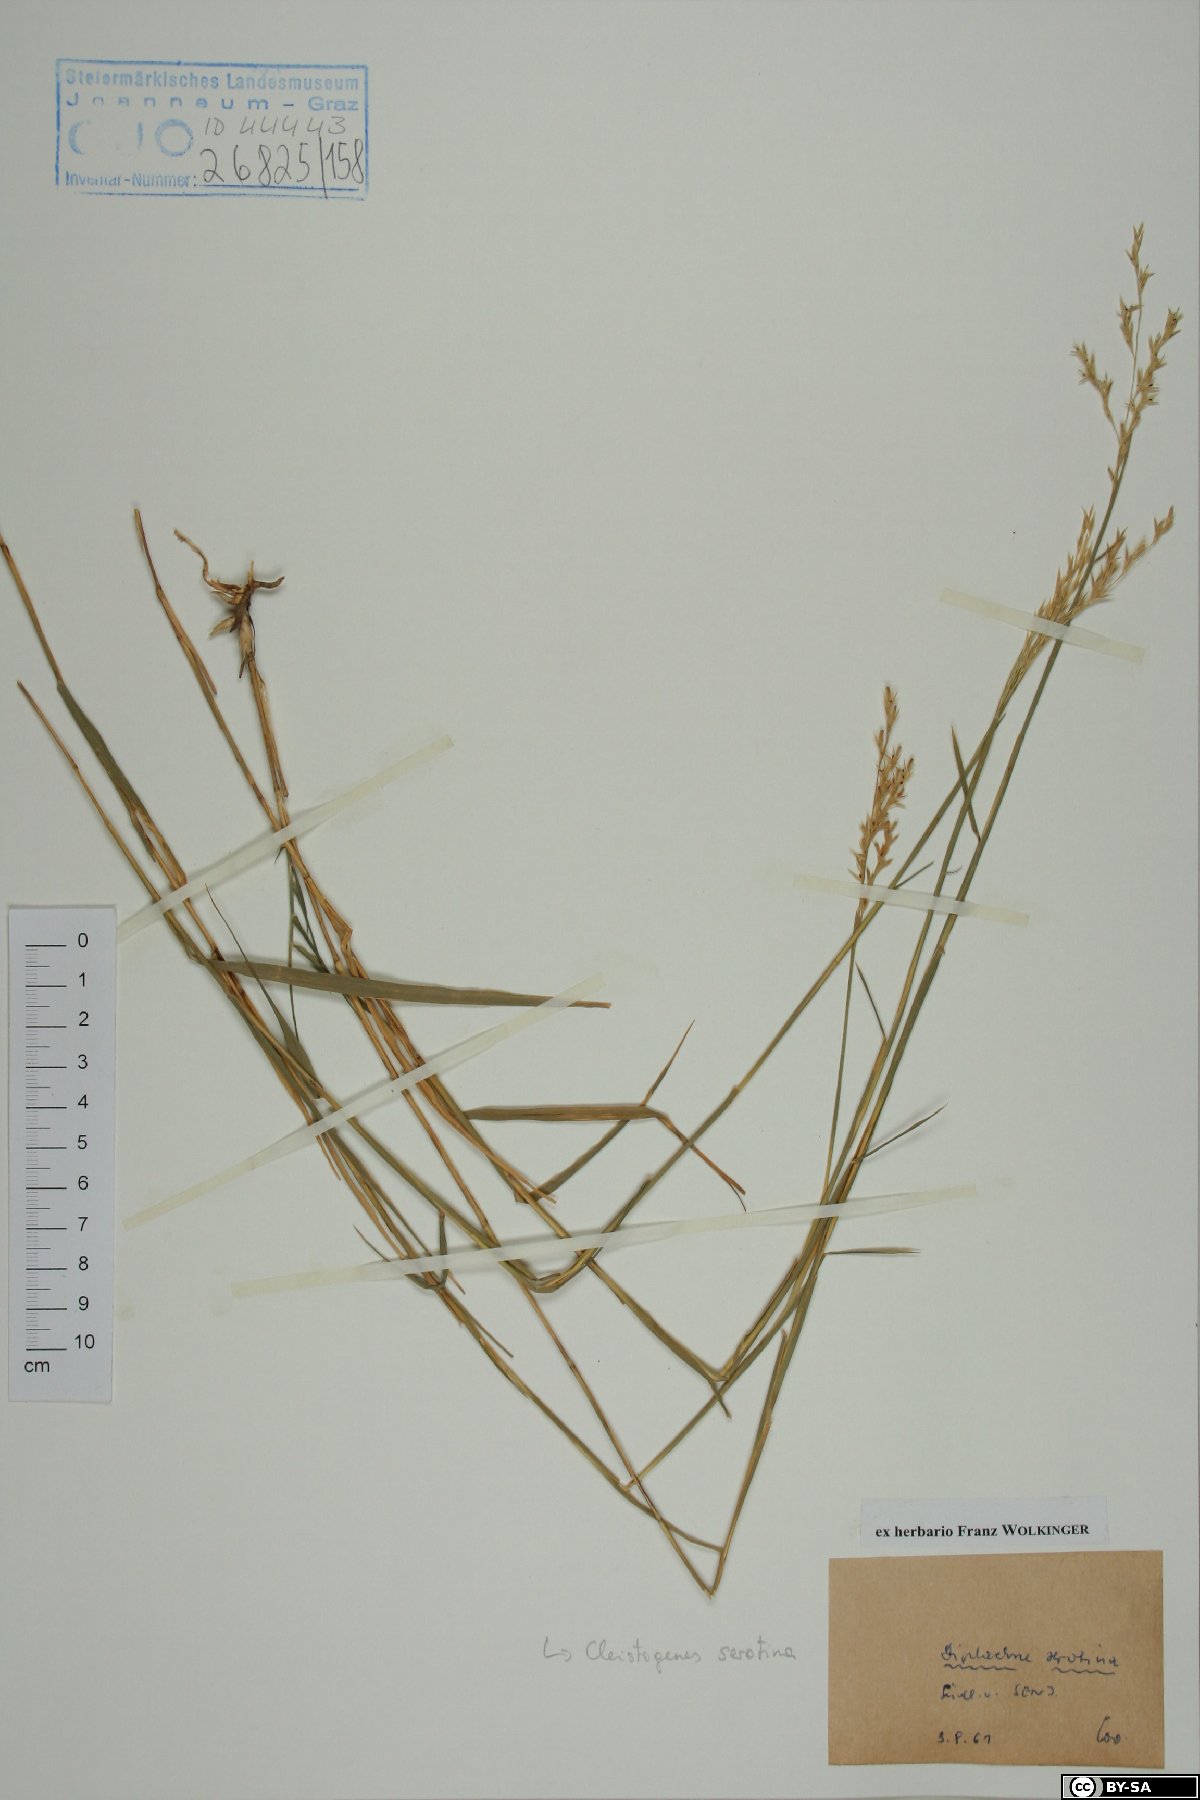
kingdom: Plantae
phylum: Tracheophyta
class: Liliopsida
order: Poales
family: Poaceae
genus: Cleistogenes
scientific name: Cleistogenes serotina
